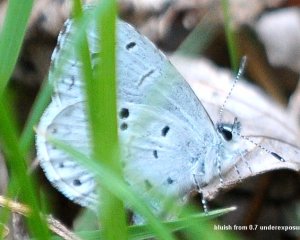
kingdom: Animalia
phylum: Arthropoda
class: Insecta
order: Lepidoptera
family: Lycaenidae
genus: Celastrina
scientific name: Celastrina serotina
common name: Cherry Gall Azure
